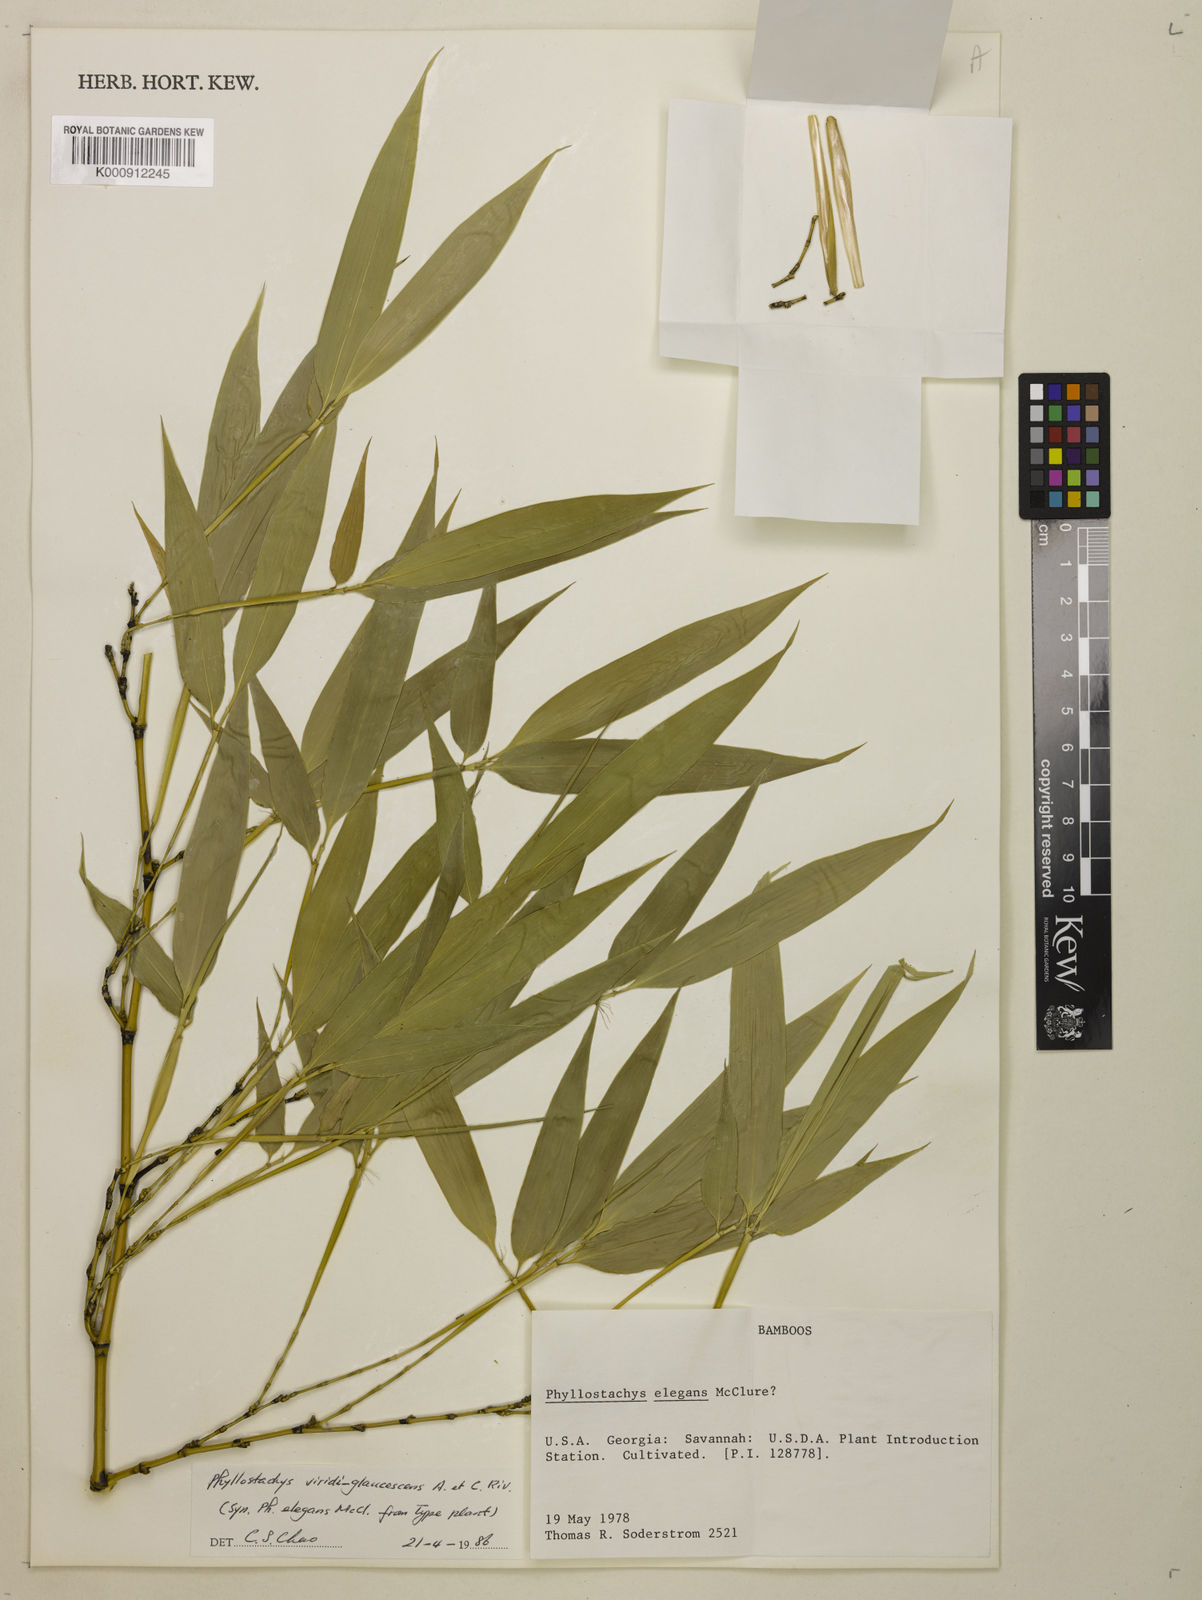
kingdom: Plantae
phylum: Tracheophyta
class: Liliopsida
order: Poales
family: Poaceae
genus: Phyllostachys
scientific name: Phyllostachys
